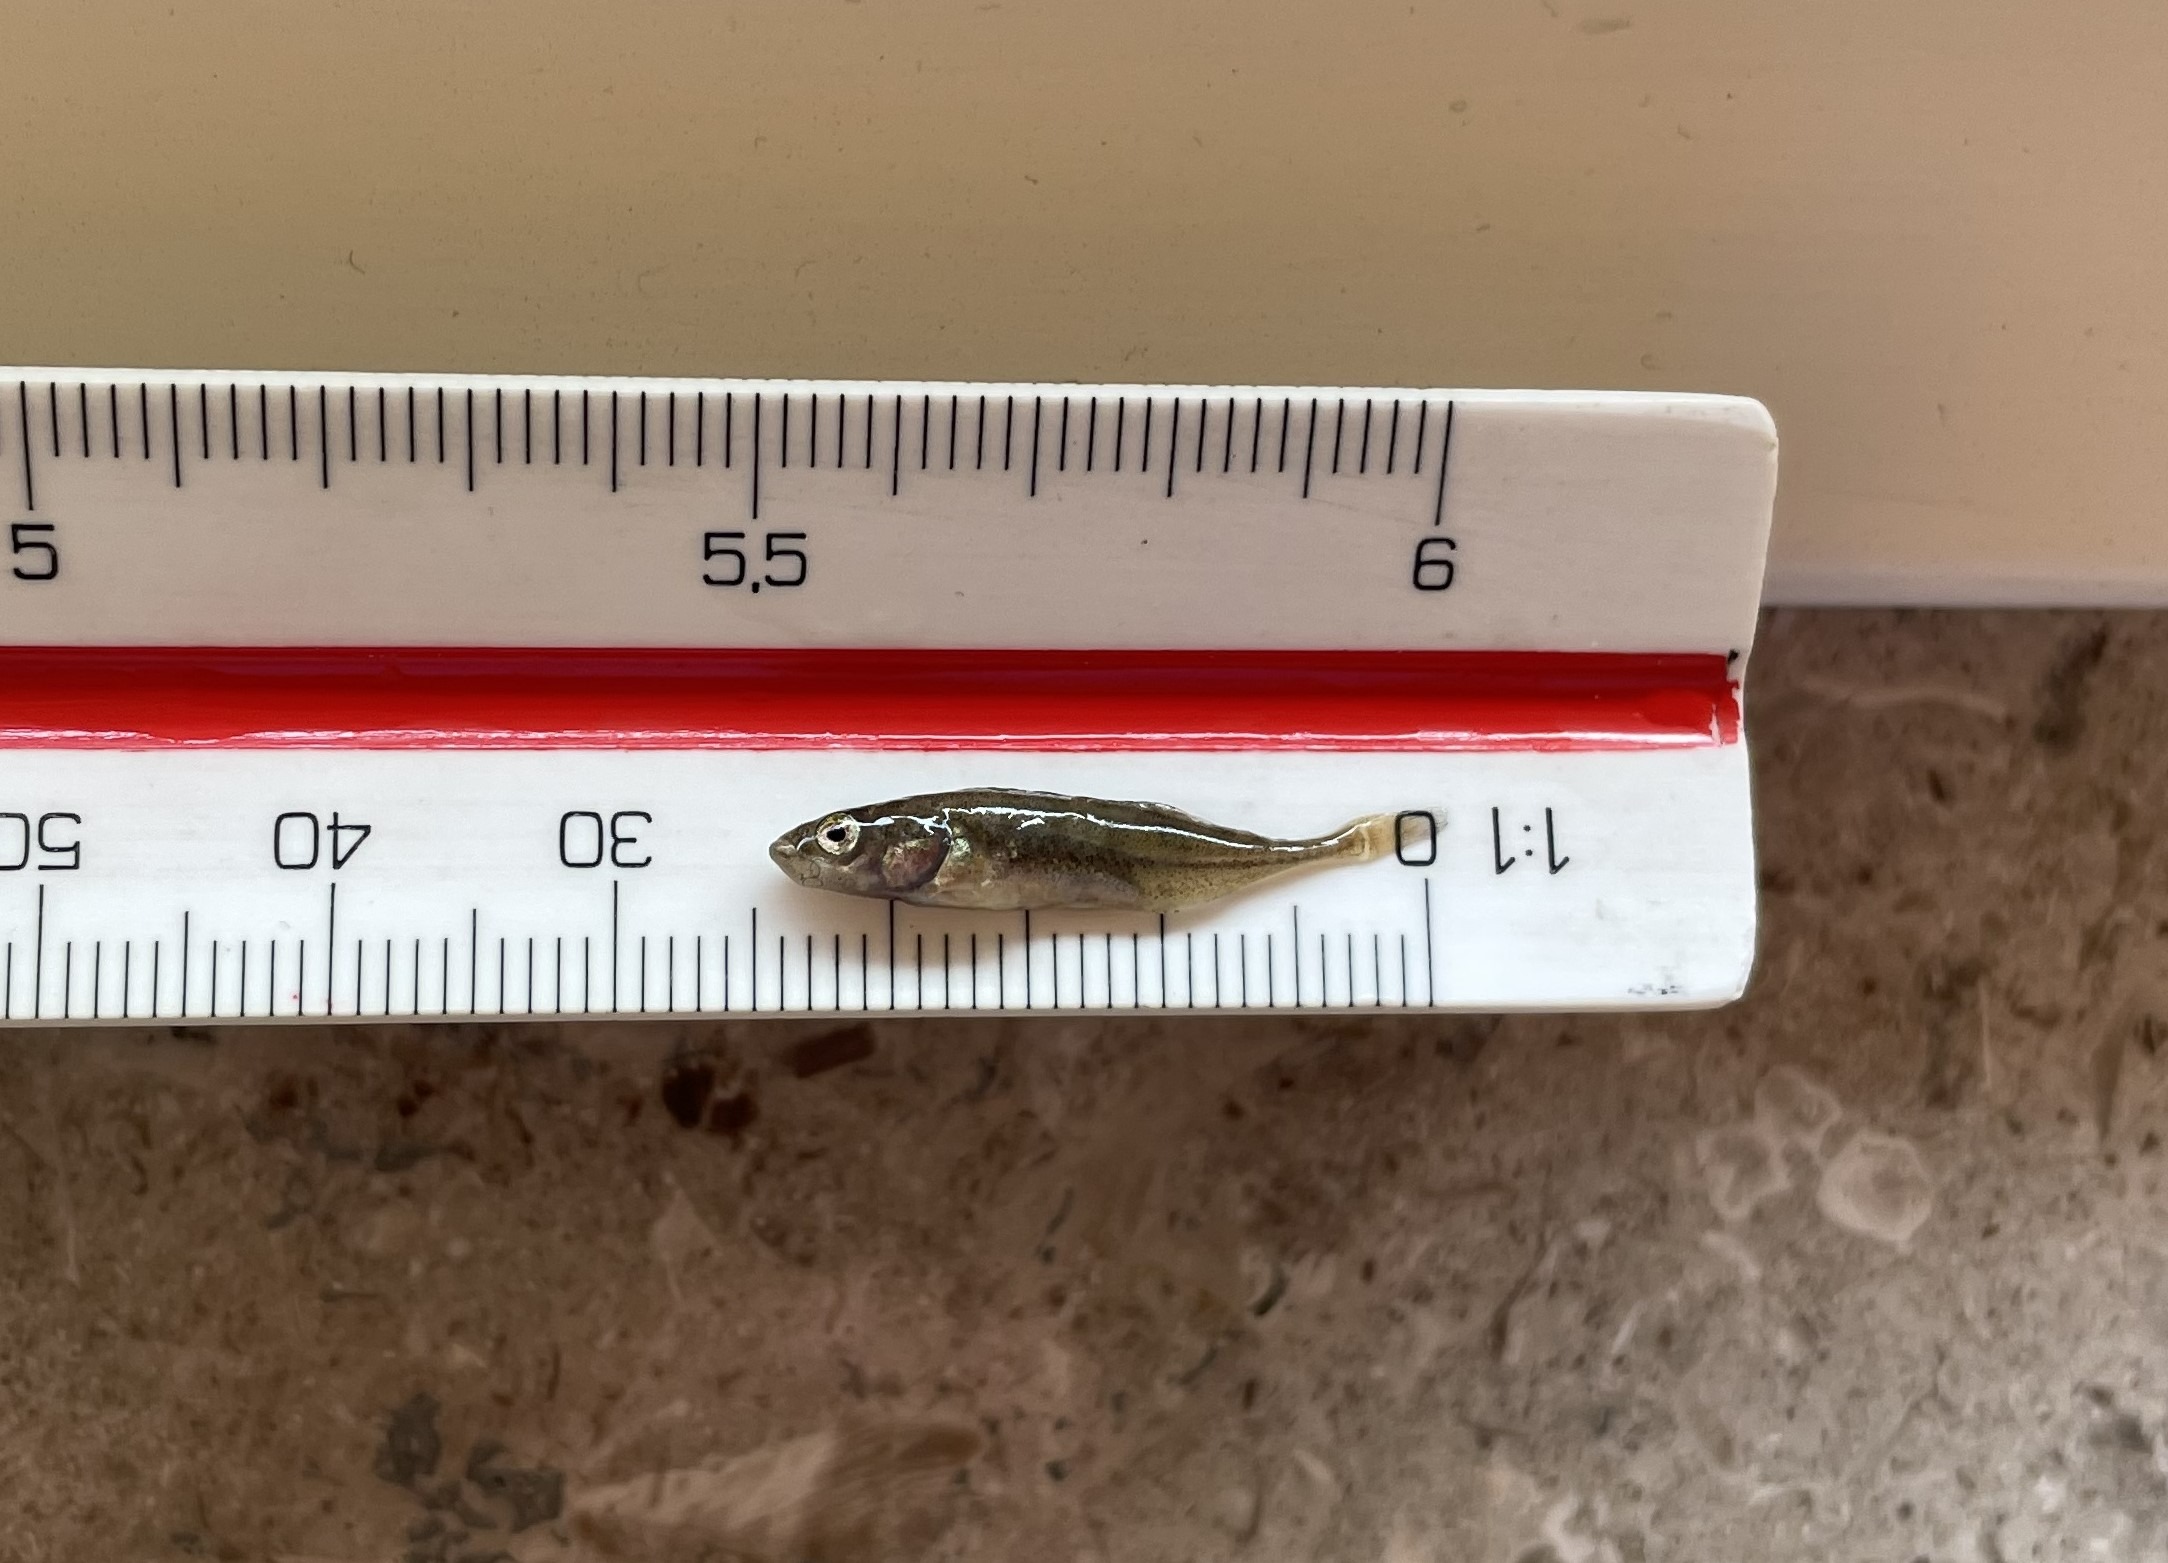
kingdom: Animalia
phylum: Chordata
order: Gasterosteiformes
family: Gasterosteidae
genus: Pungitius
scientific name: Pungitius pungitius
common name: Nipigget hundestejle
